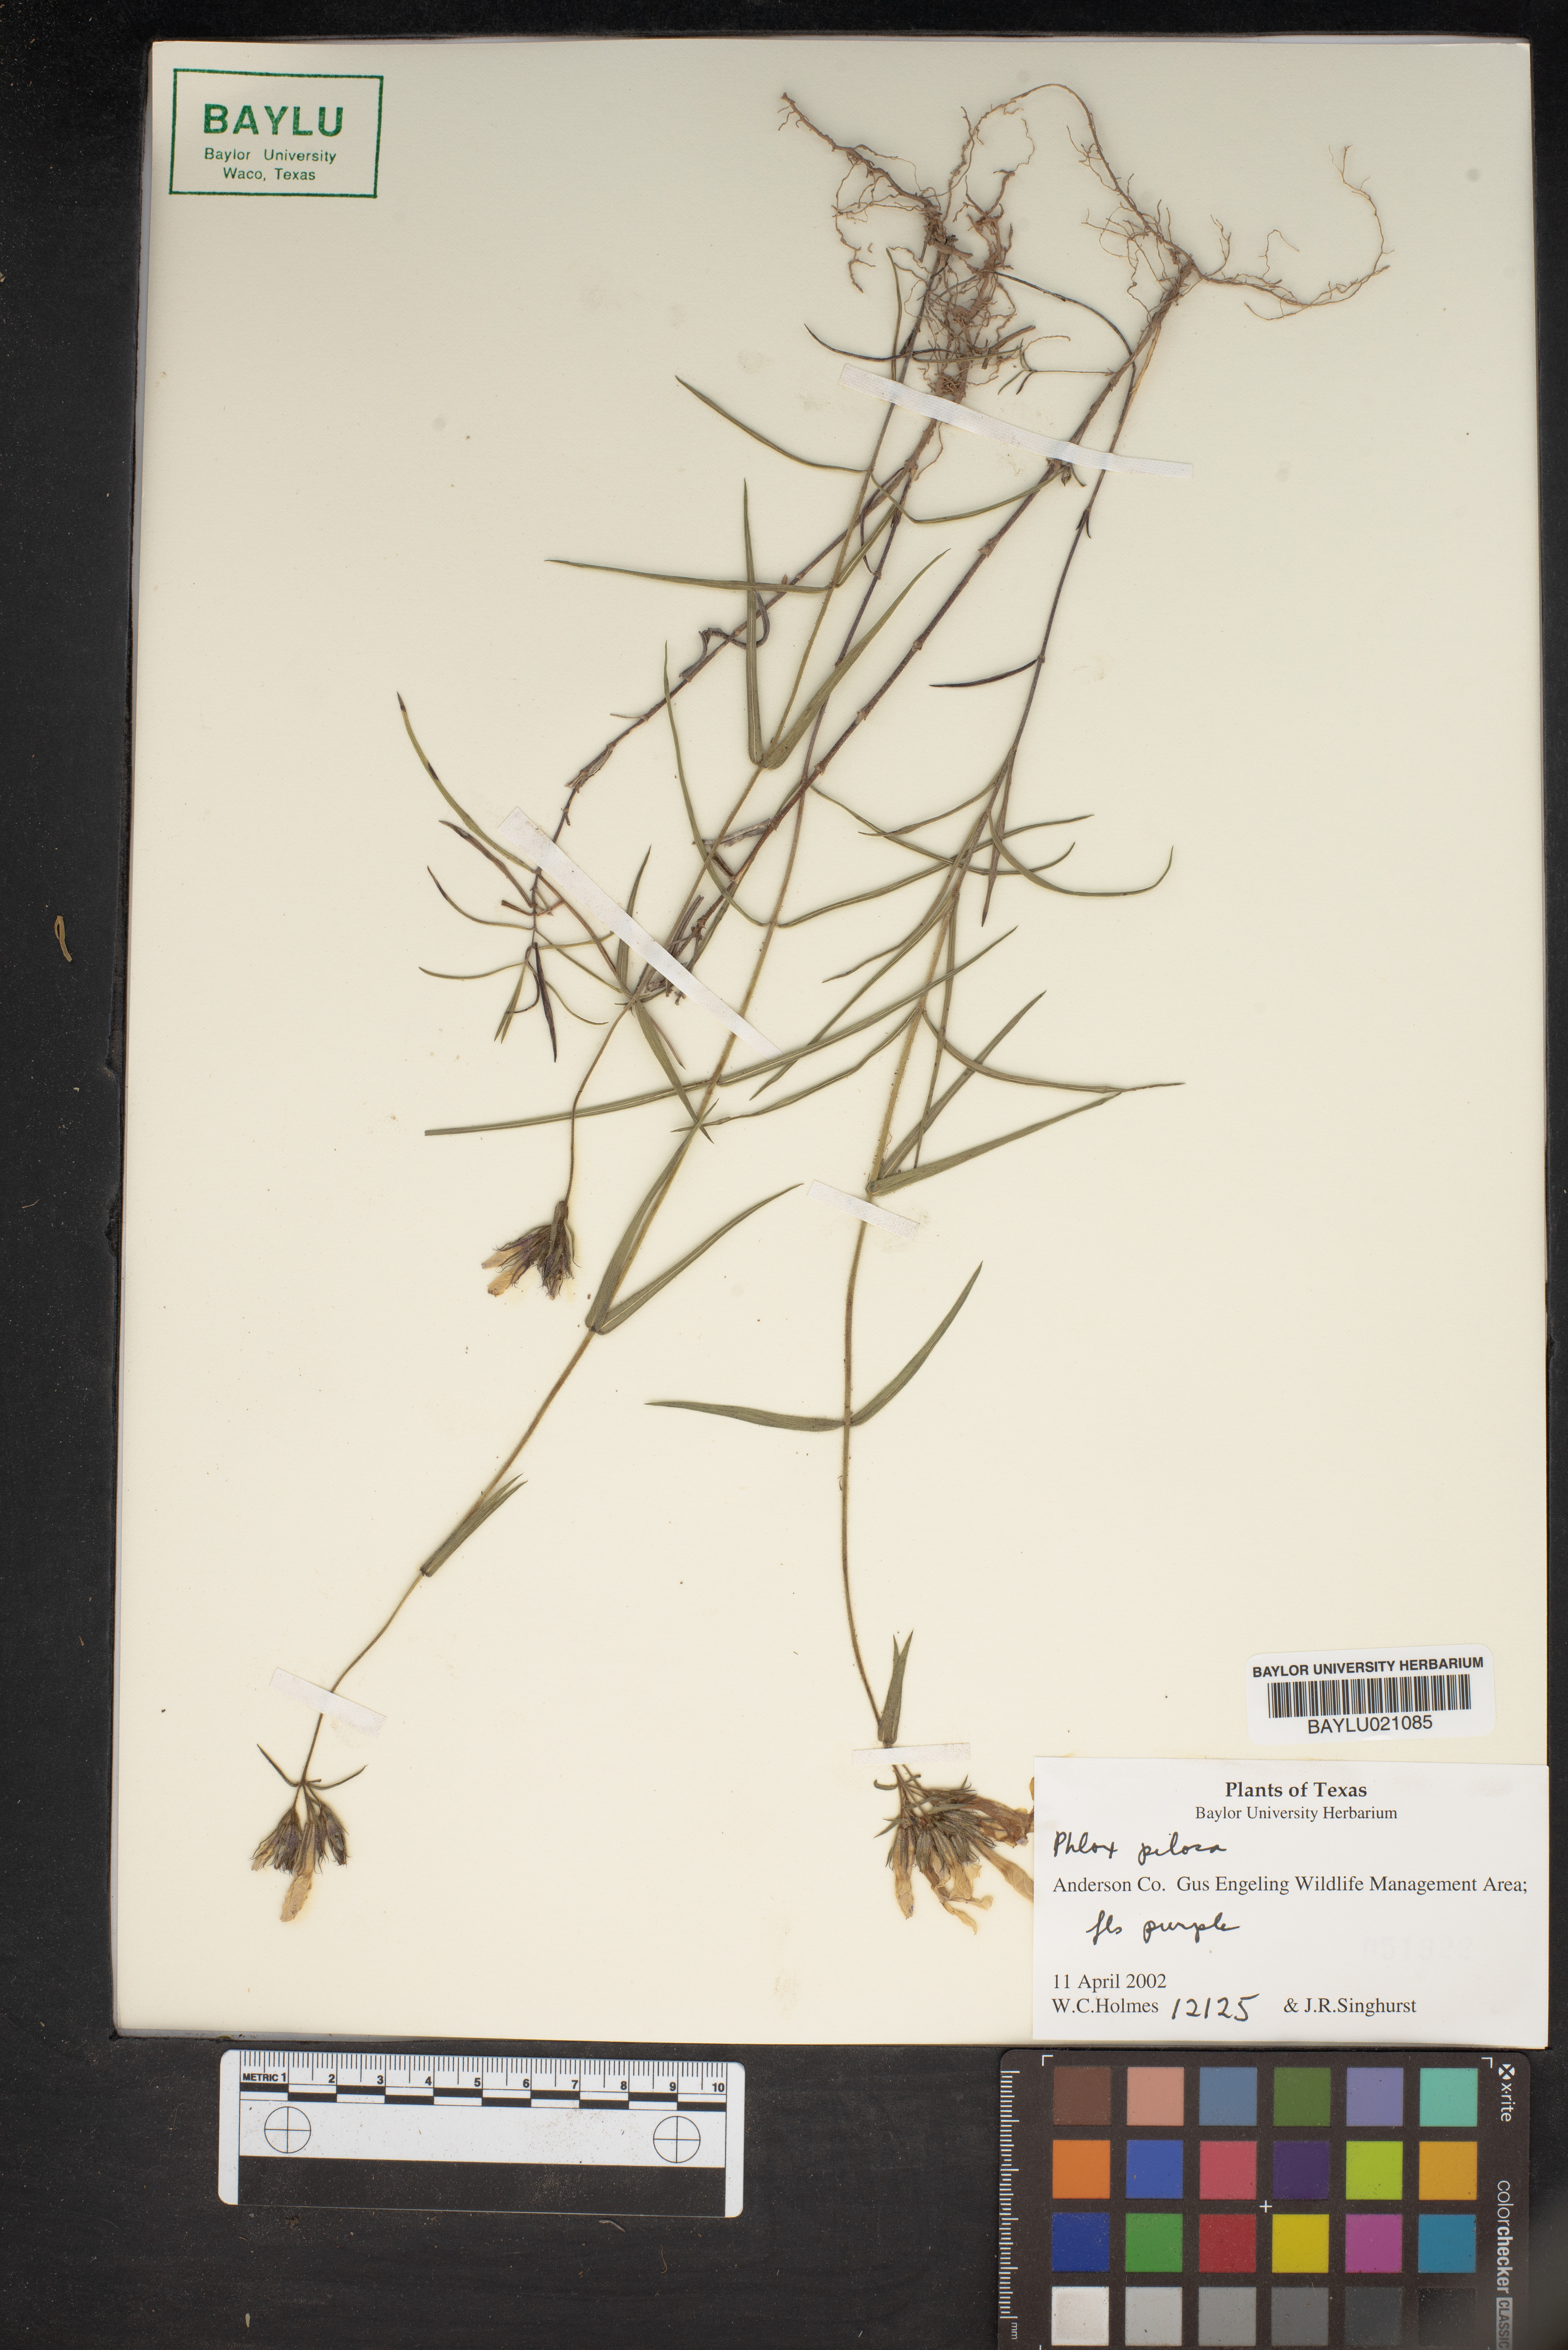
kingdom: Plantae
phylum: Tracheophyta
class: Magnoliopsida
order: Ericales
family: Polemoniaceae
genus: Phlox
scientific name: Phlox pilosa
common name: Prairie phlox
